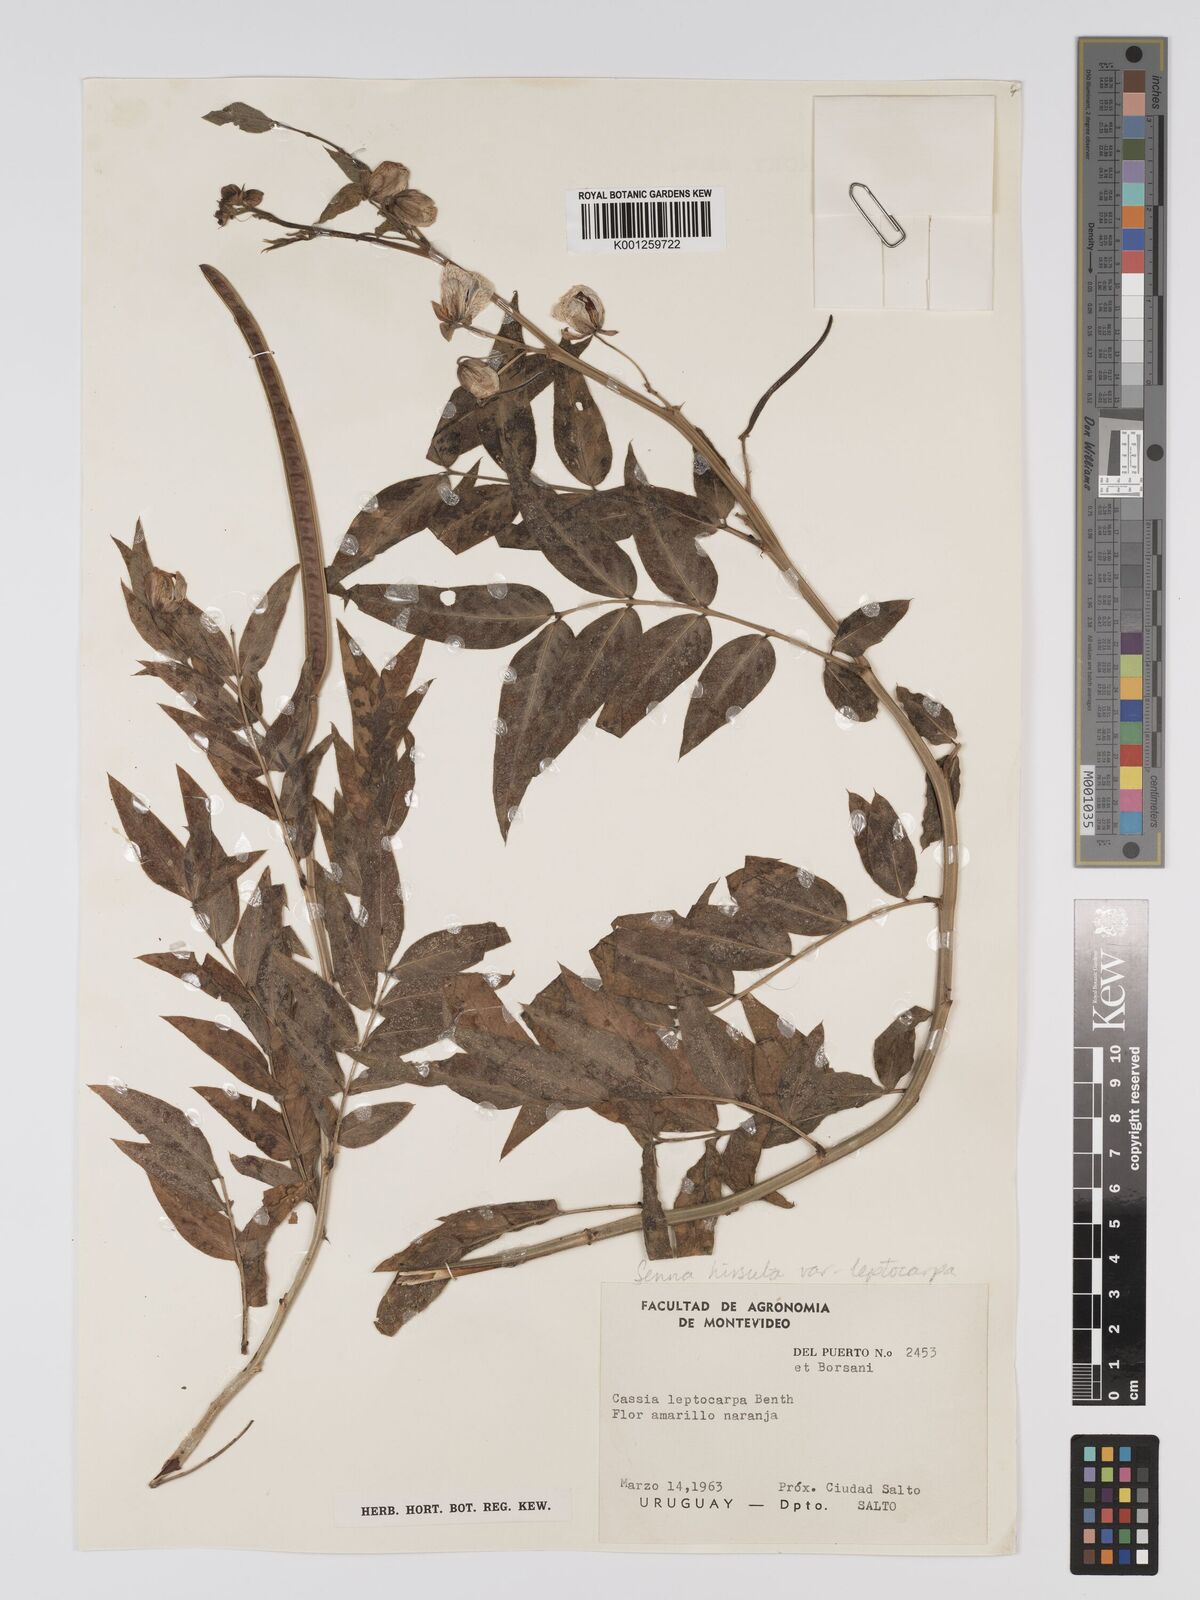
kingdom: Plantae
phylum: Tracheophyta
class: Magnoliopsida
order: Fabales
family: Fabaceae
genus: Senna
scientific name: Senna hirsuta
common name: Woolly senna
